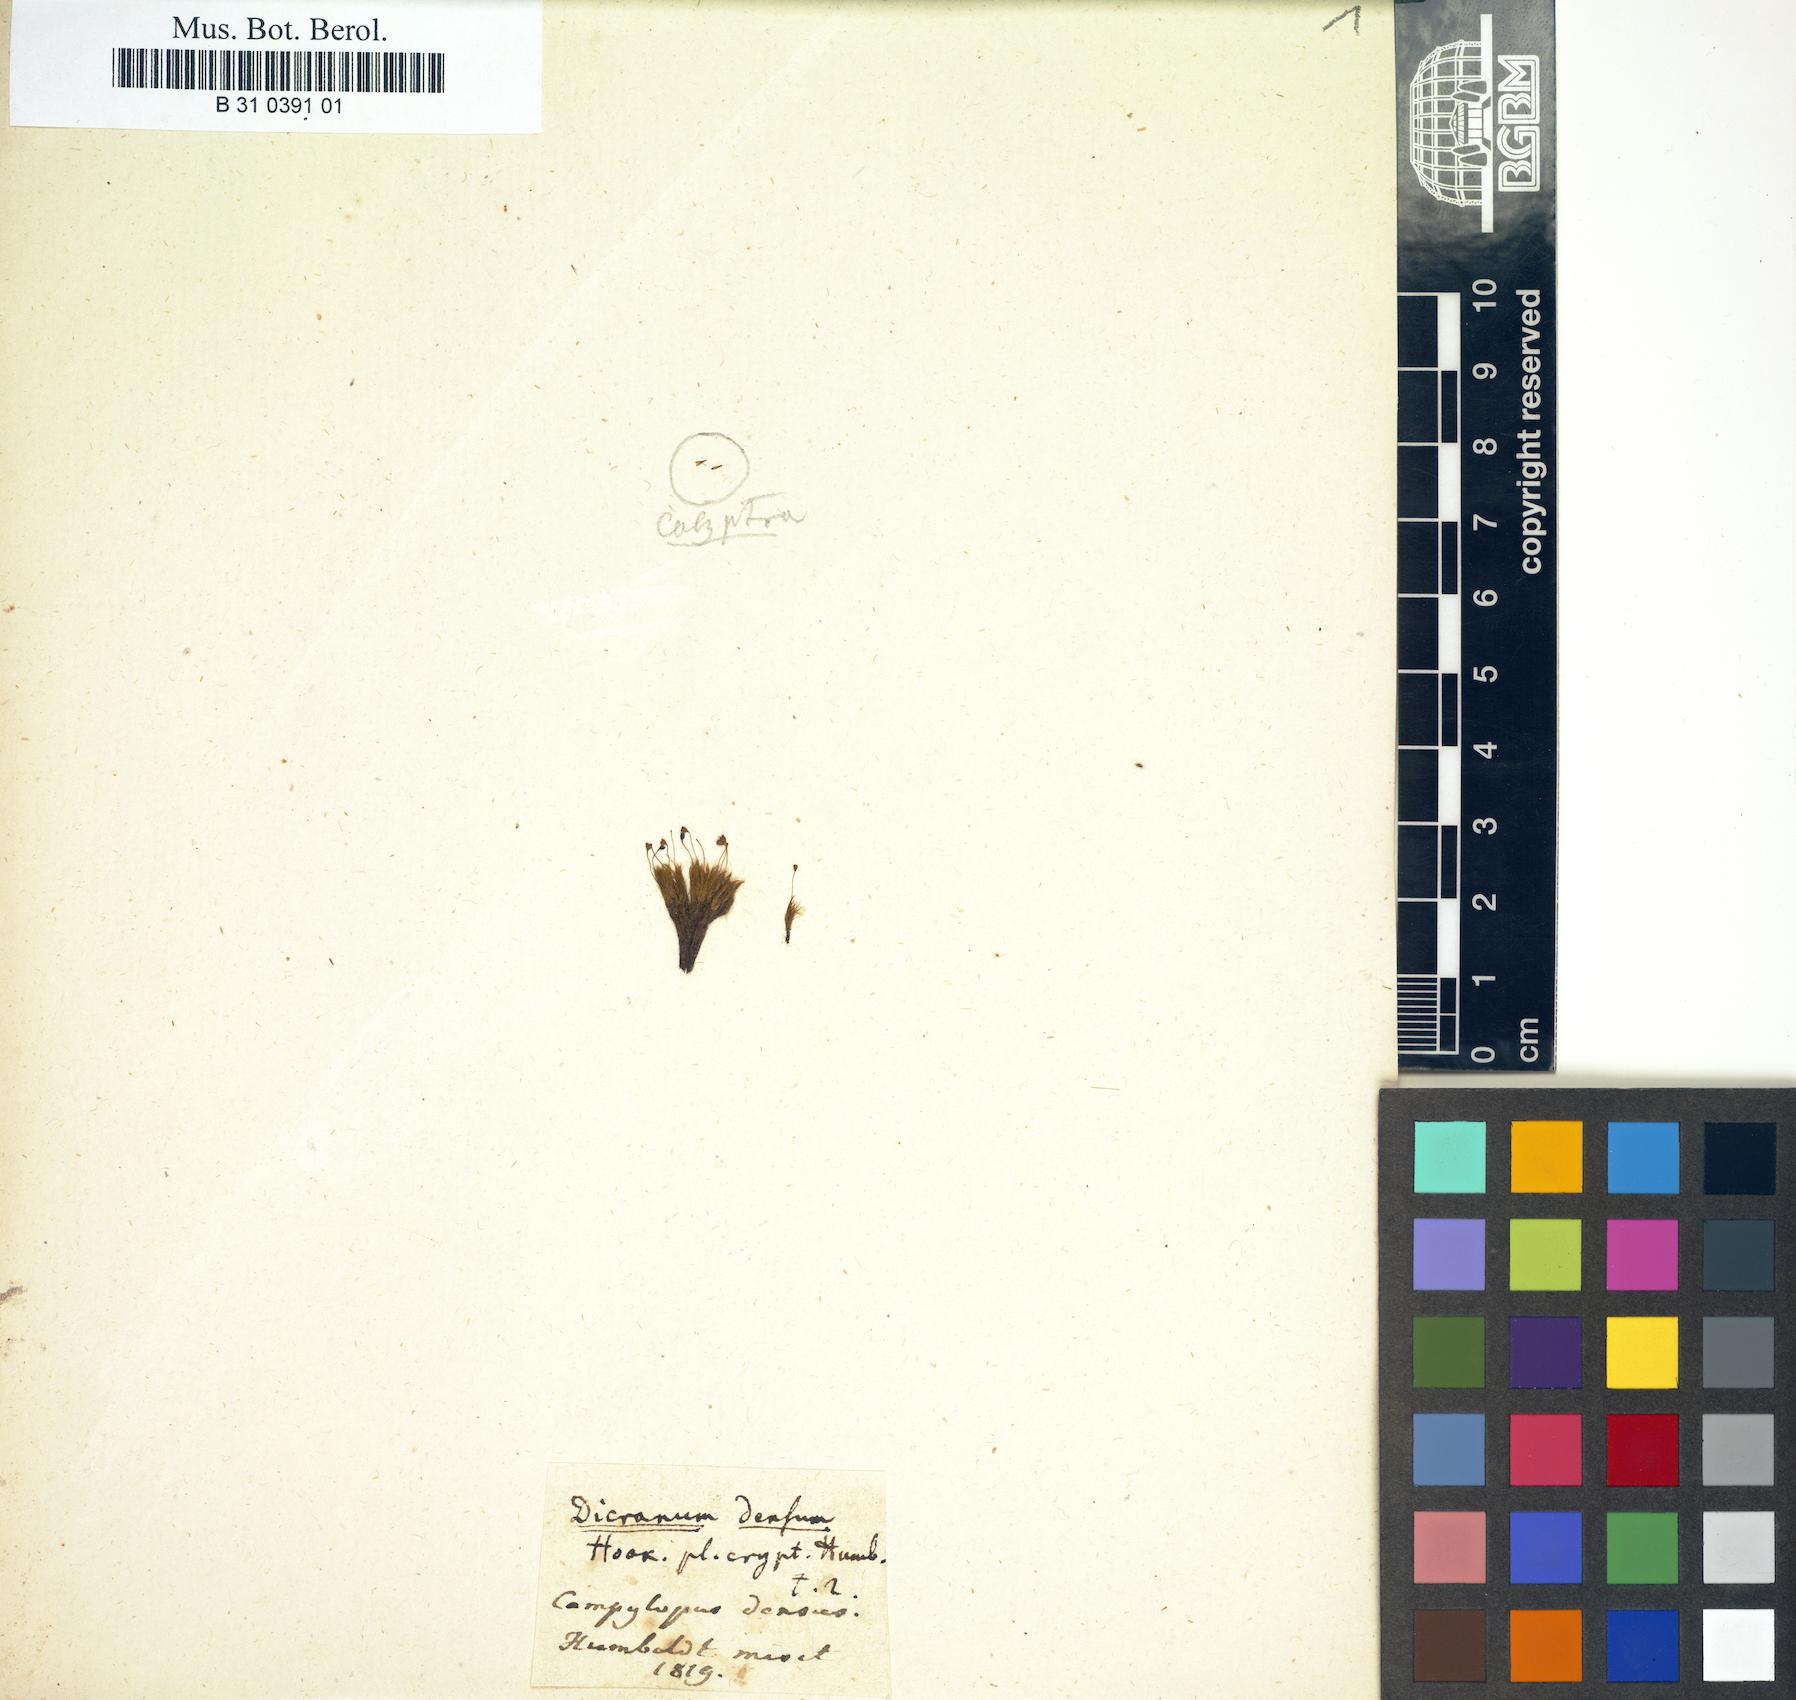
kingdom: Plantae
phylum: Bryophyta
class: Bryopsida
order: Dicranales
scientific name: Dicranales
